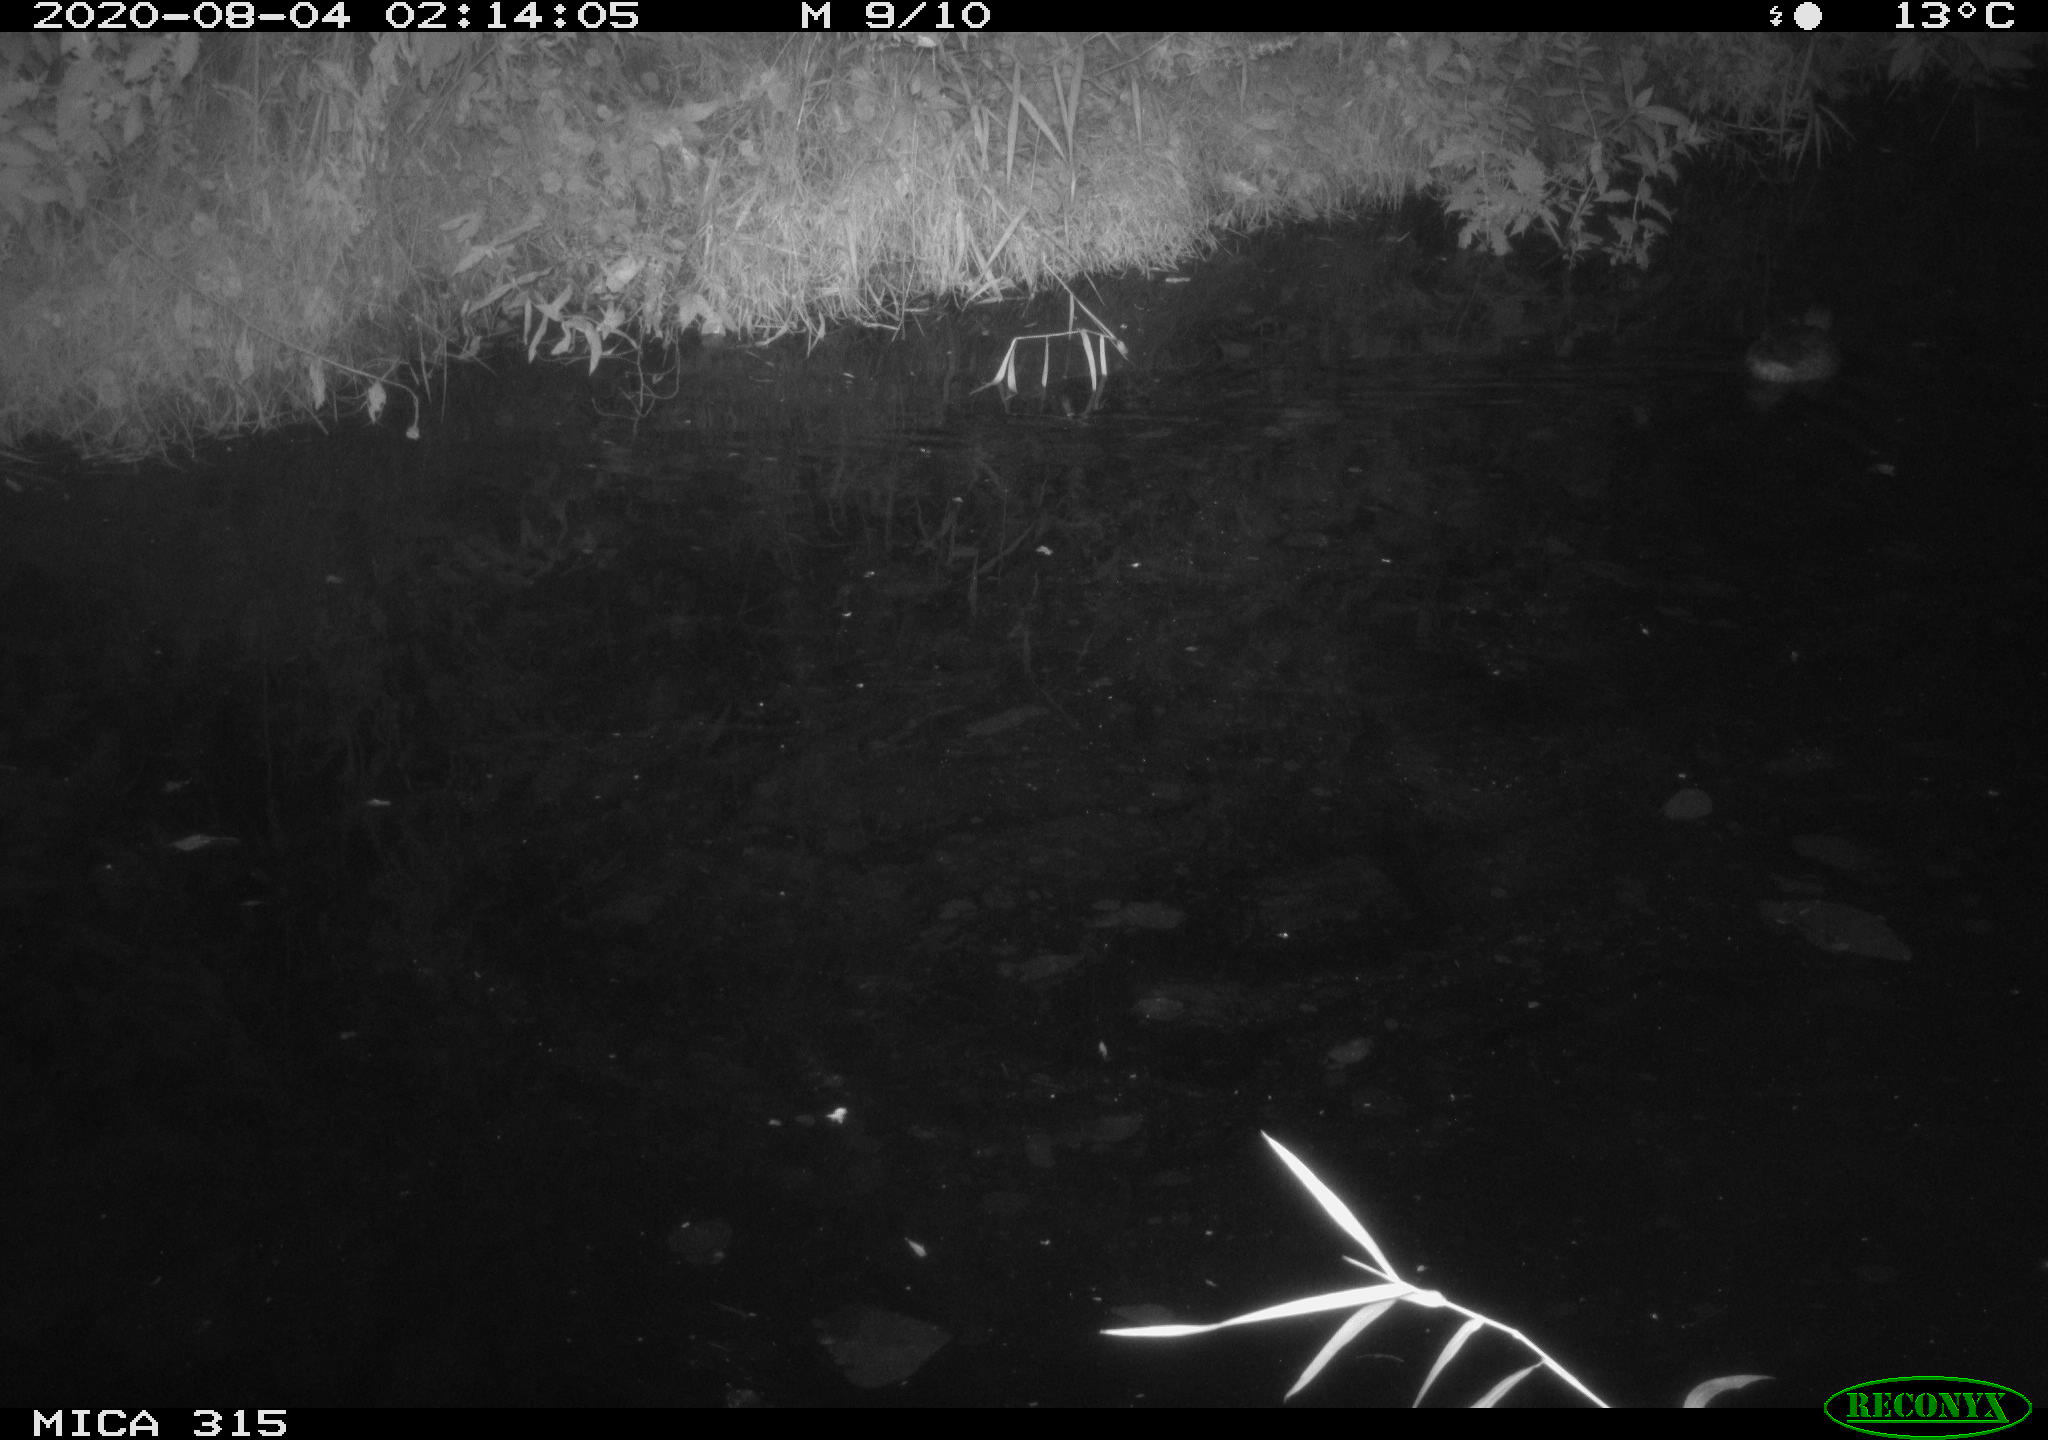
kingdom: Animalia
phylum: Chordata
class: Aves
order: Anseriformes
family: Anatidae
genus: Anas
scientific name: Anas platyrhynchos
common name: Mallard
